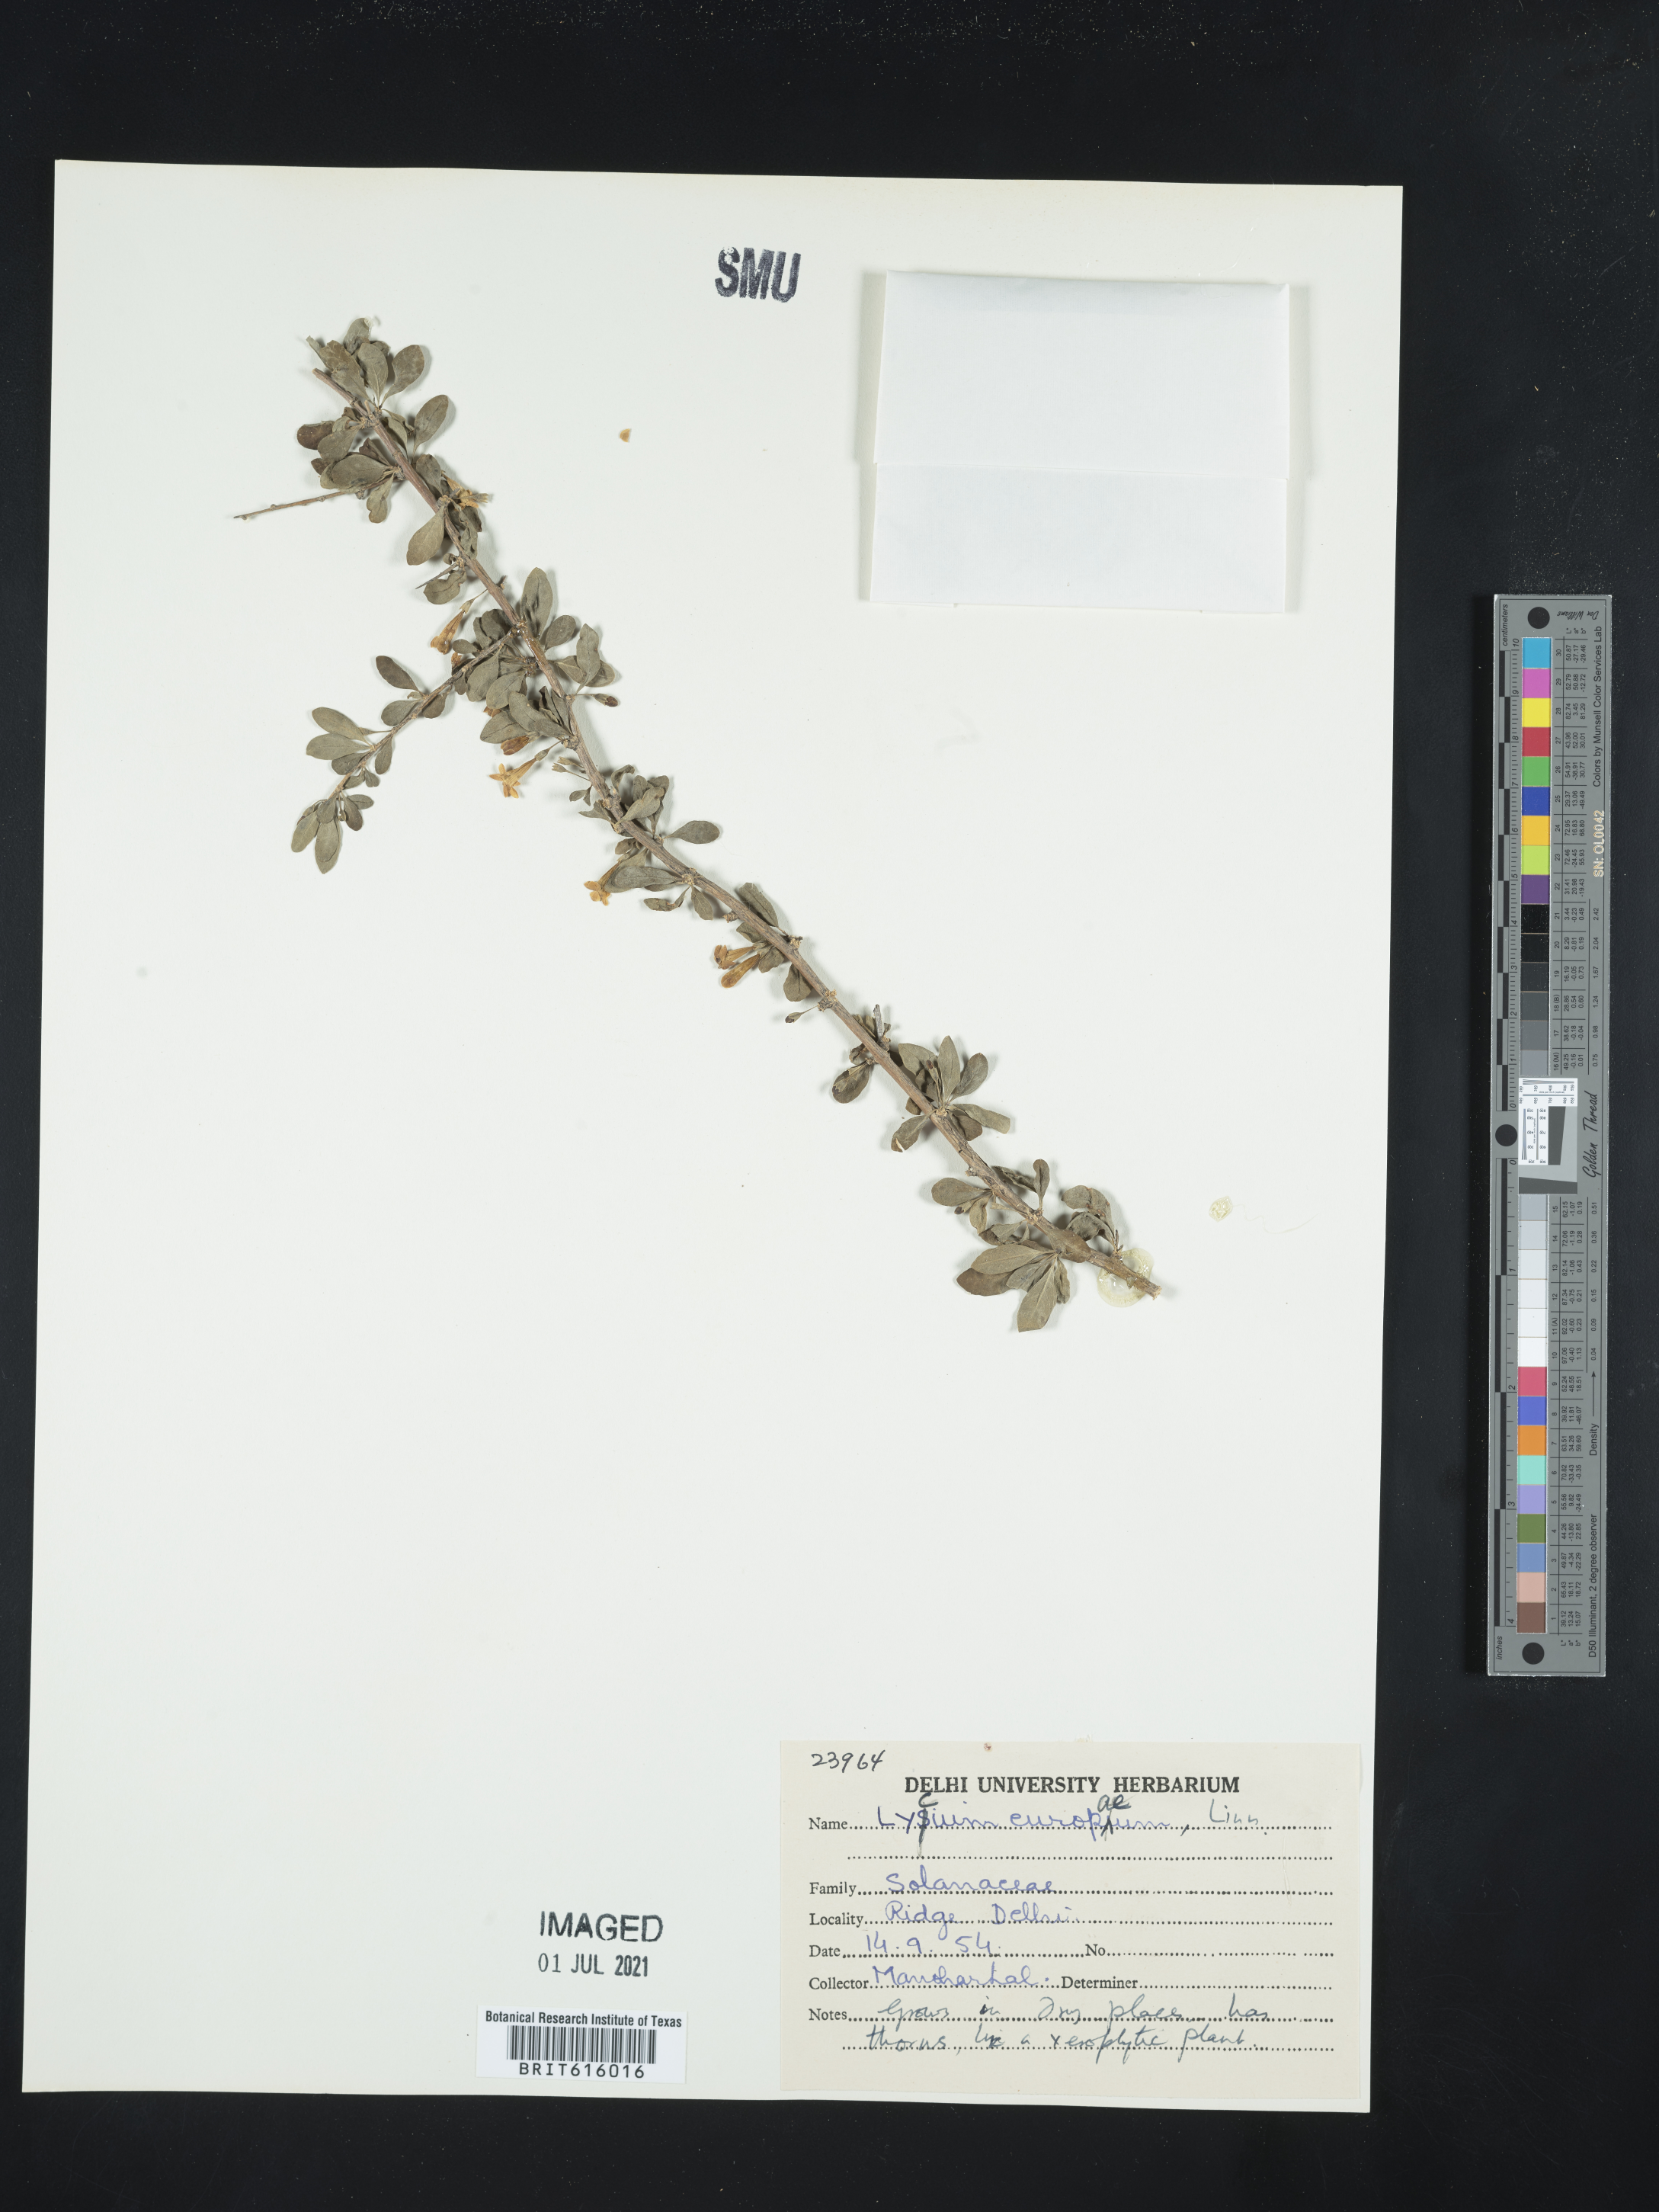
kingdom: Plantae
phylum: Tracheophyta
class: Magnoliopsida
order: Solanales
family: Solanaceae
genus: Lycium
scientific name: Lycium europaeum
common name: Boxthorn
